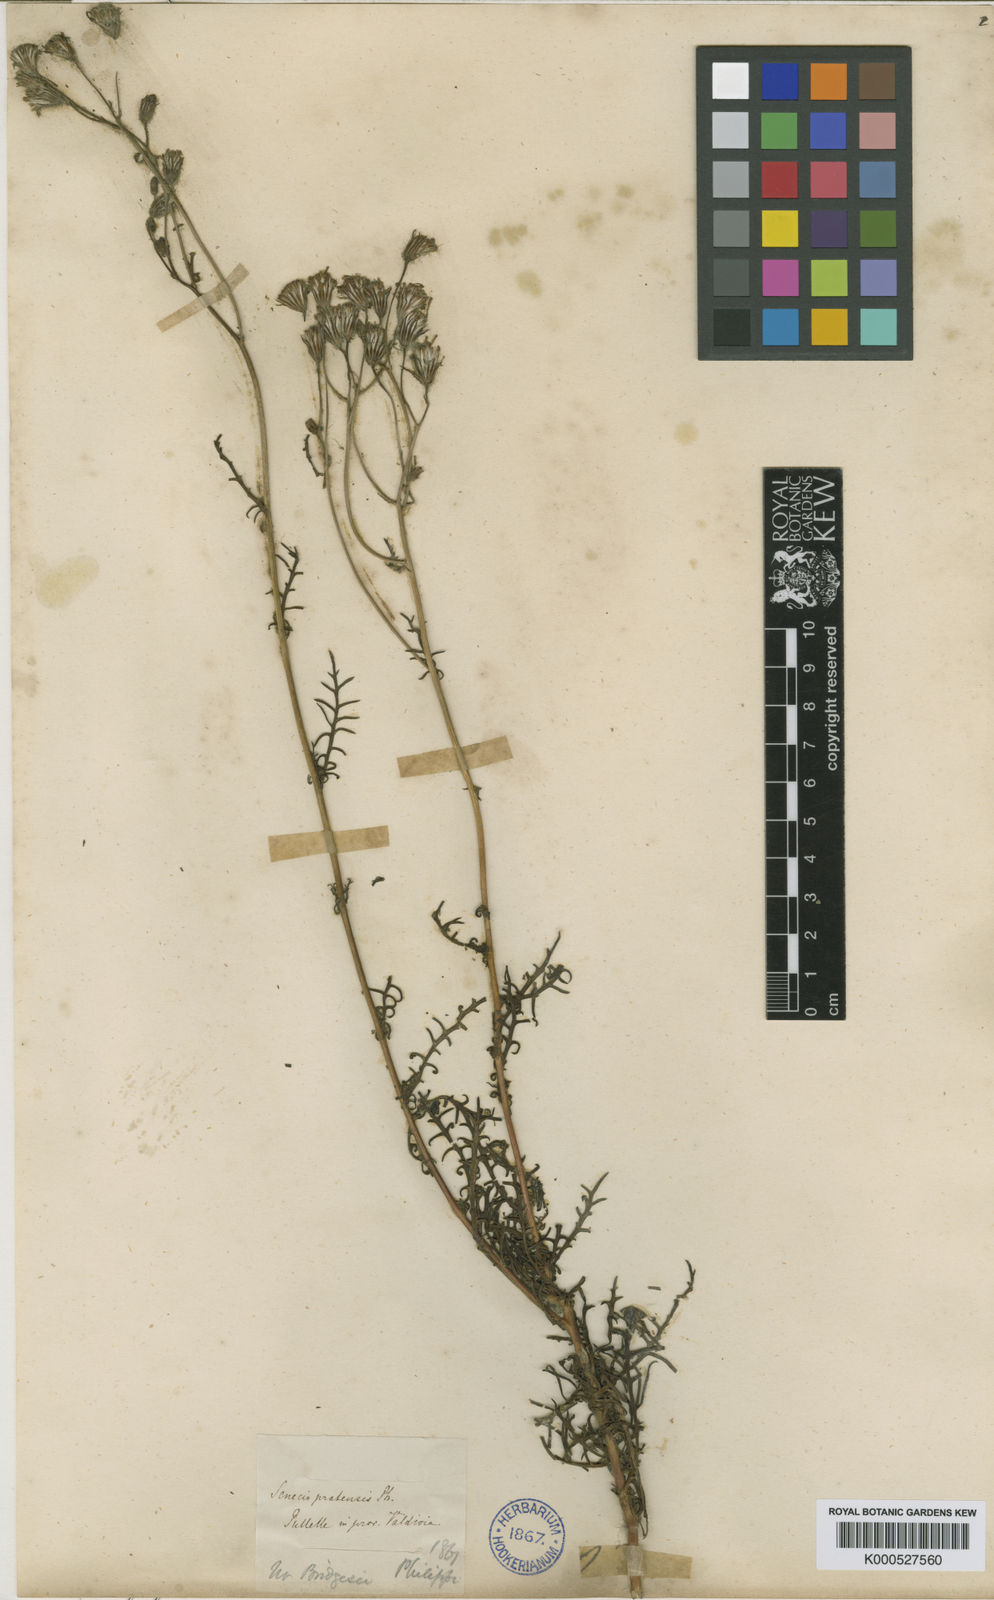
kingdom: Plantae
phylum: Tracheophyta
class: Magnoliopsida
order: Asterales
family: Asteraceae
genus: Senecio
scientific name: Senecio glaber
